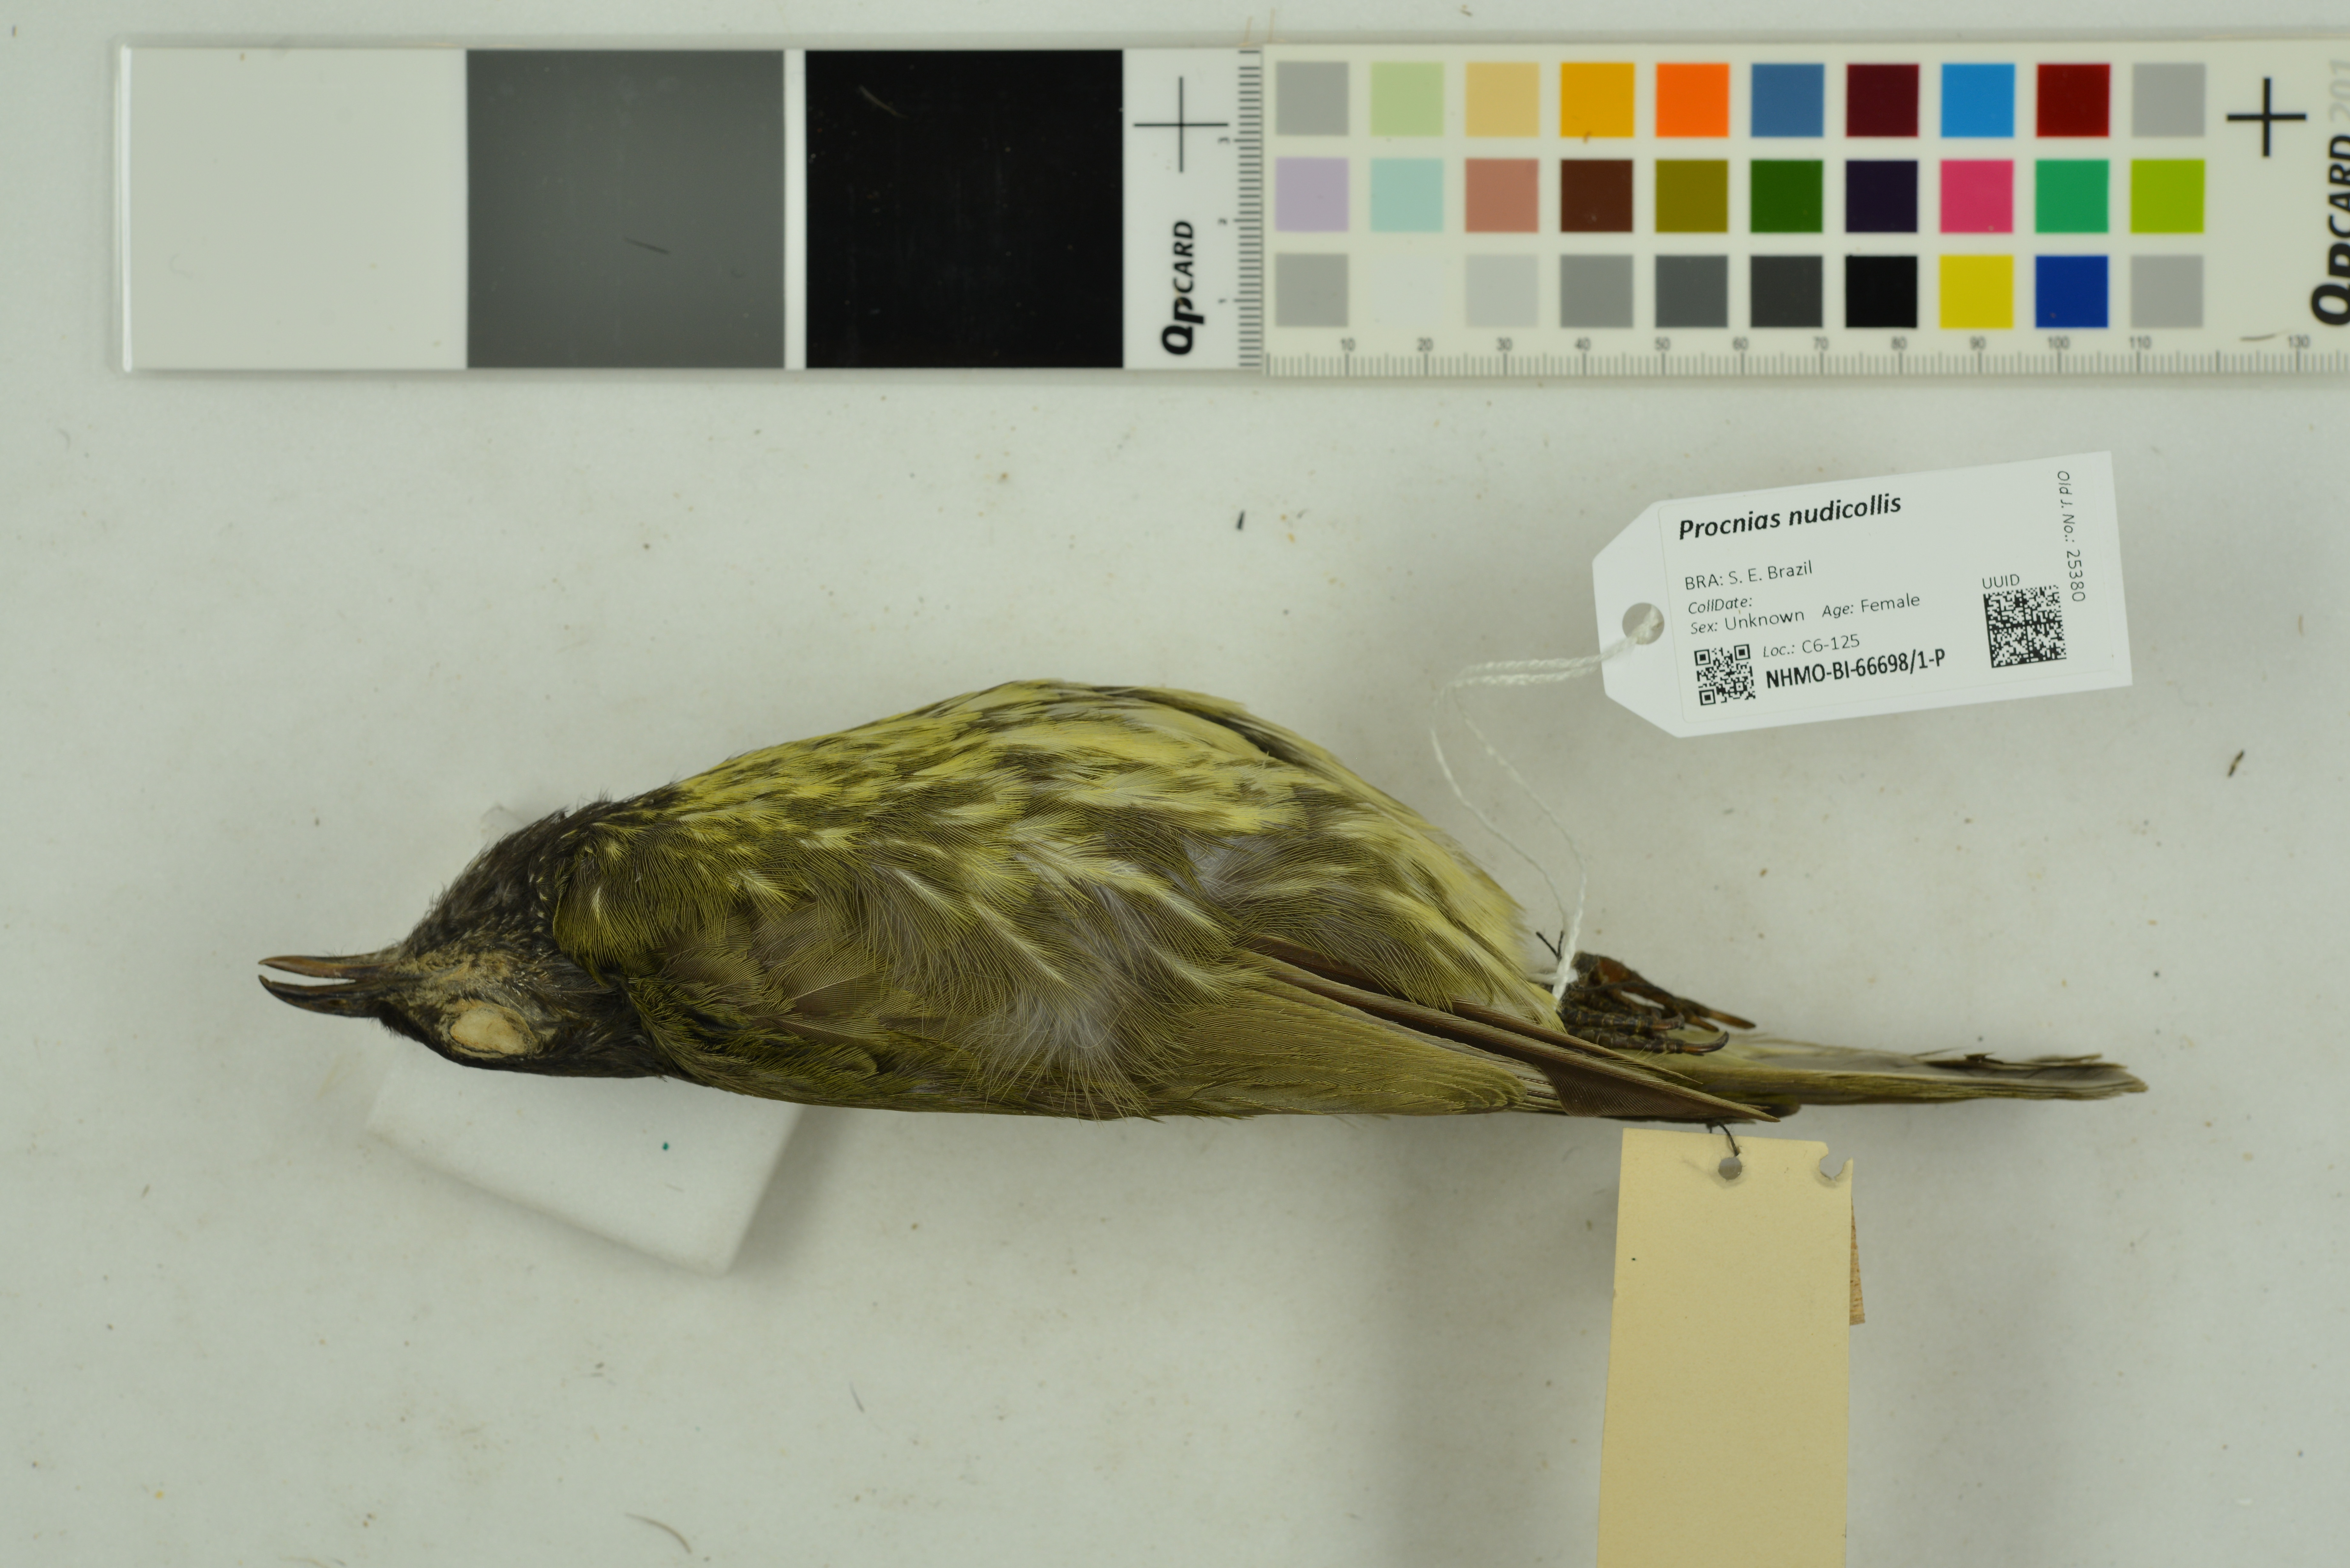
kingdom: Animalia
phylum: Chordata
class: Aves
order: Passeriformes
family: Cotingidae
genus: Procnias
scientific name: Procnias nudicollis
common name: Bare-throated bellbird
